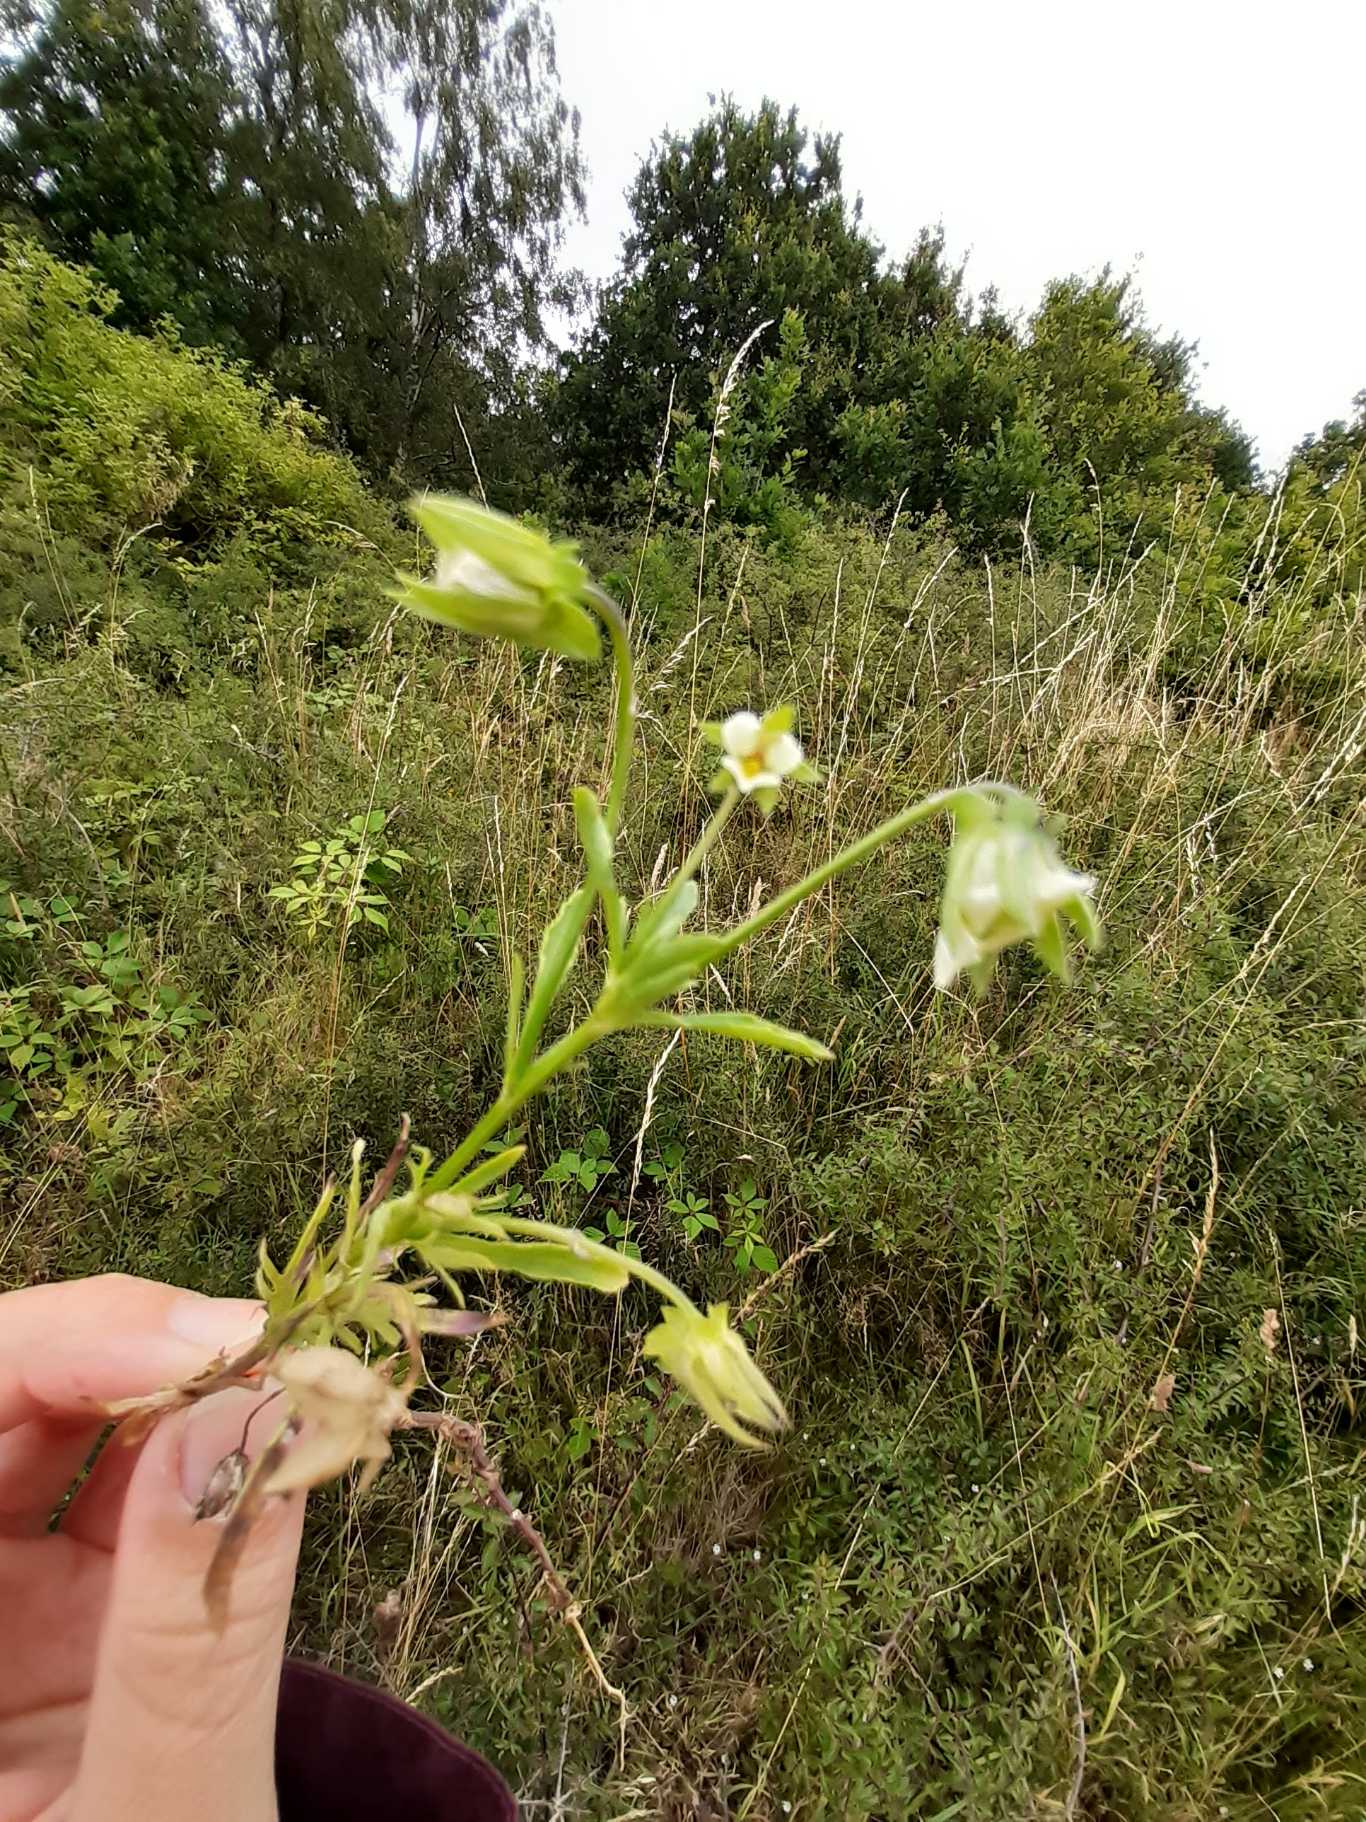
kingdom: Plantae
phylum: Tracheophyta
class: Magnoliopsida
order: Malpighiales
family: Violaceae
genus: Viola
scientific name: Viola arvensis
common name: Ager-stedmoderblomst
